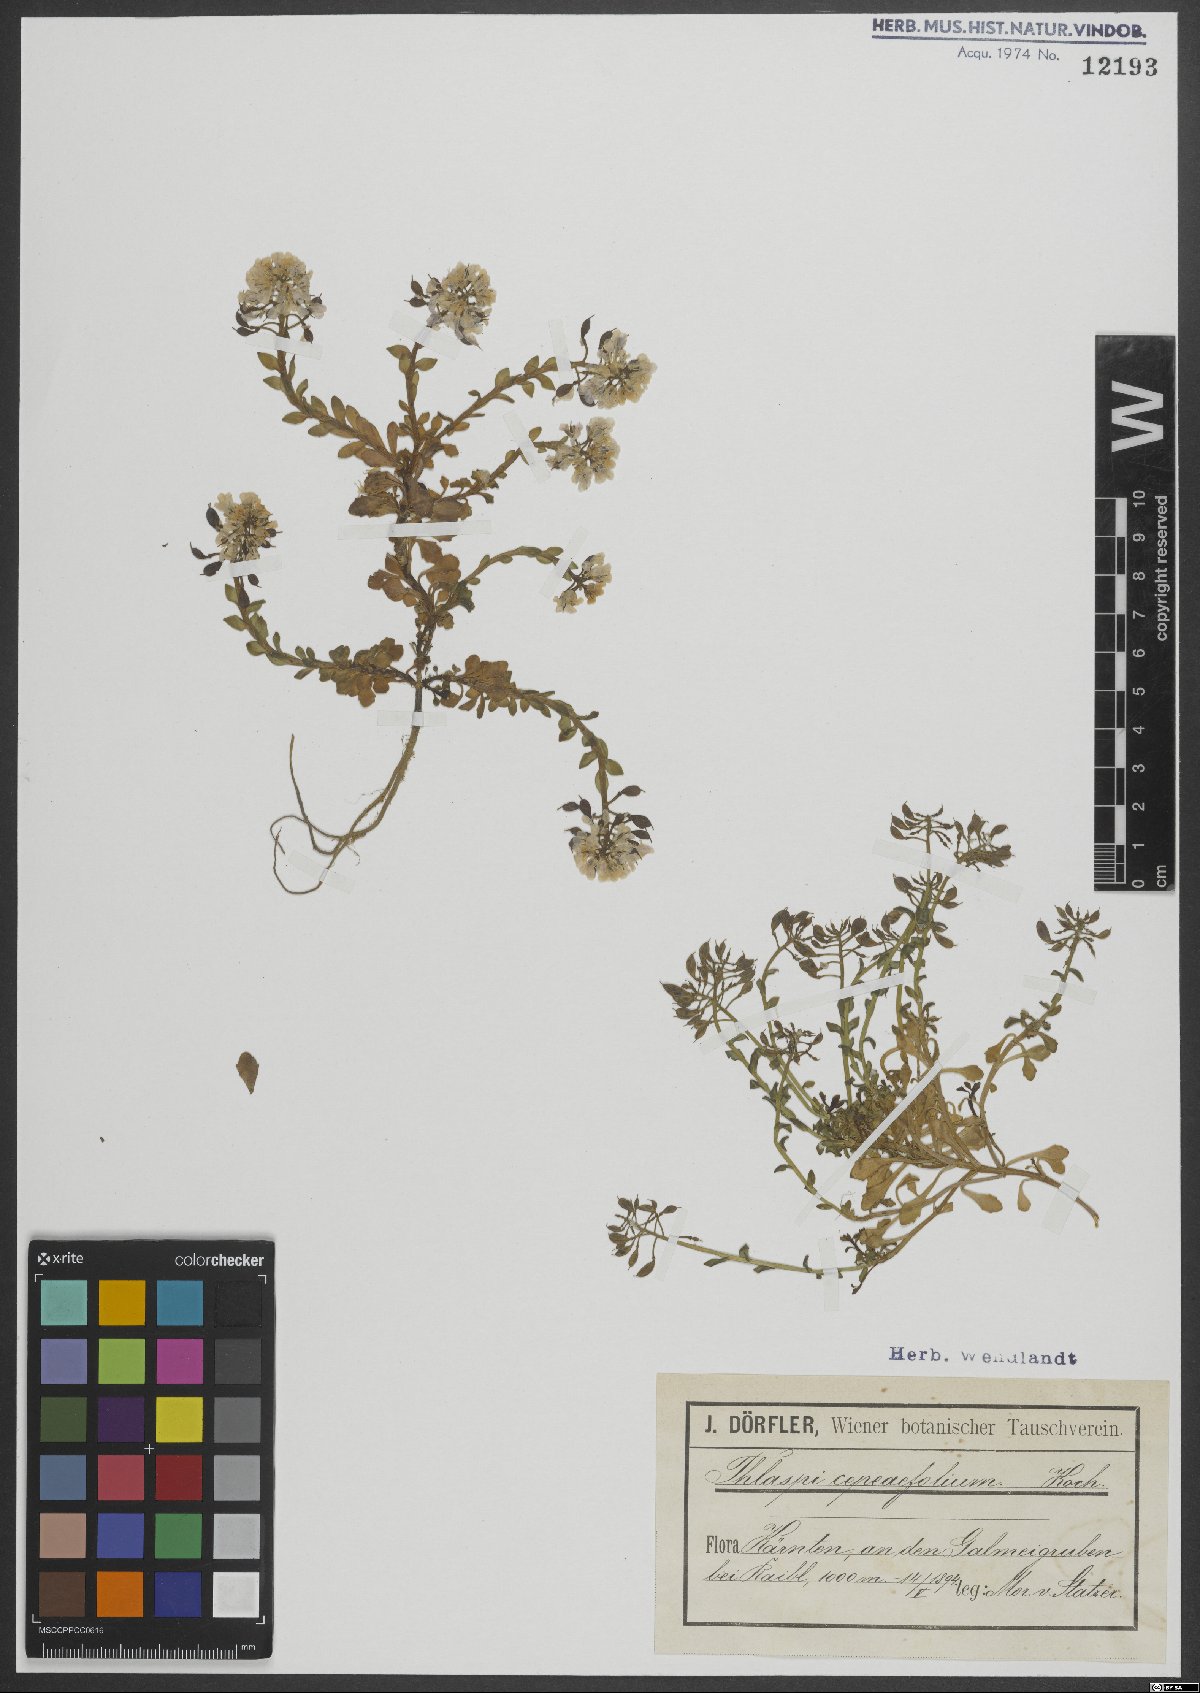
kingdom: Plantae
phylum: Tracheophyta
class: Magnoliopsida
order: Brassicales
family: Brassicaceae
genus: Noccaea
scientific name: Noccaea cepaeifolia
